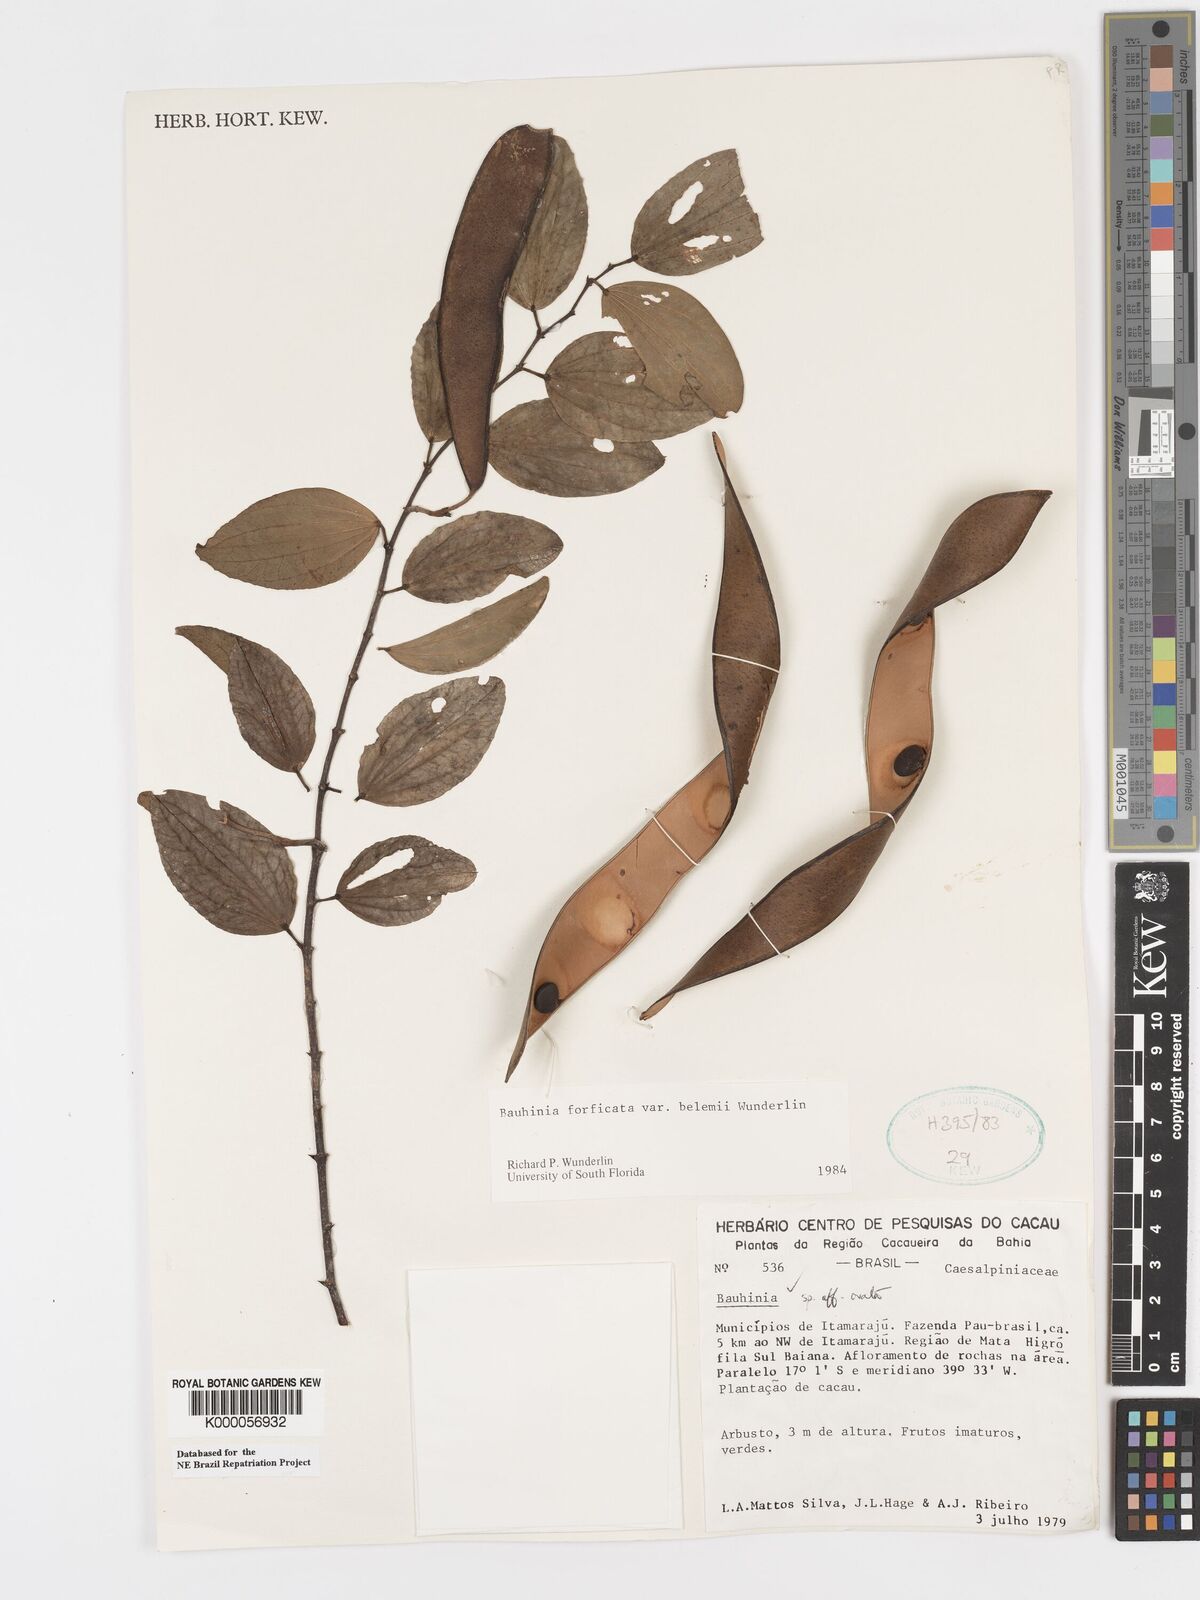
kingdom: Plantae
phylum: Tracheophyta
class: Magnoliopsida
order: Fabales
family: Fabaceae
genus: Bauhinia
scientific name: Bauhinia forficata
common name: Orchid tree
